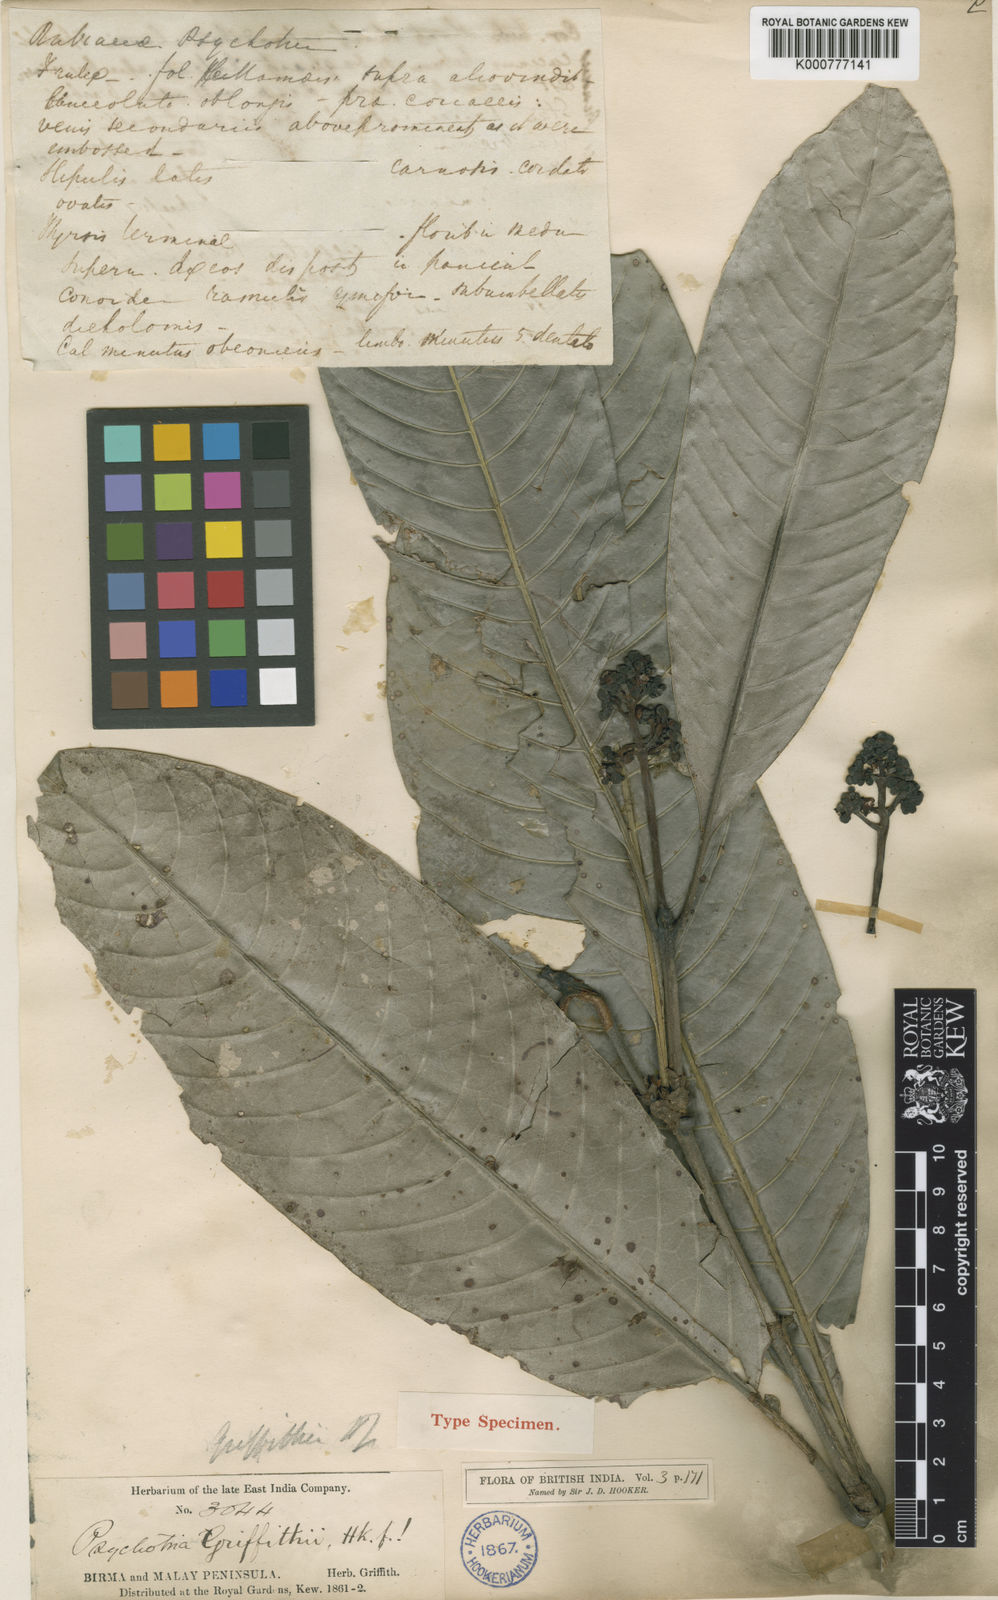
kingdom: Plantae
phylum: Tracheophyta
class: Magnoliopsida
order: Gentianales
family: Rubiaceae
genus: Psychotria
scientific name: Psychotria griffithii
